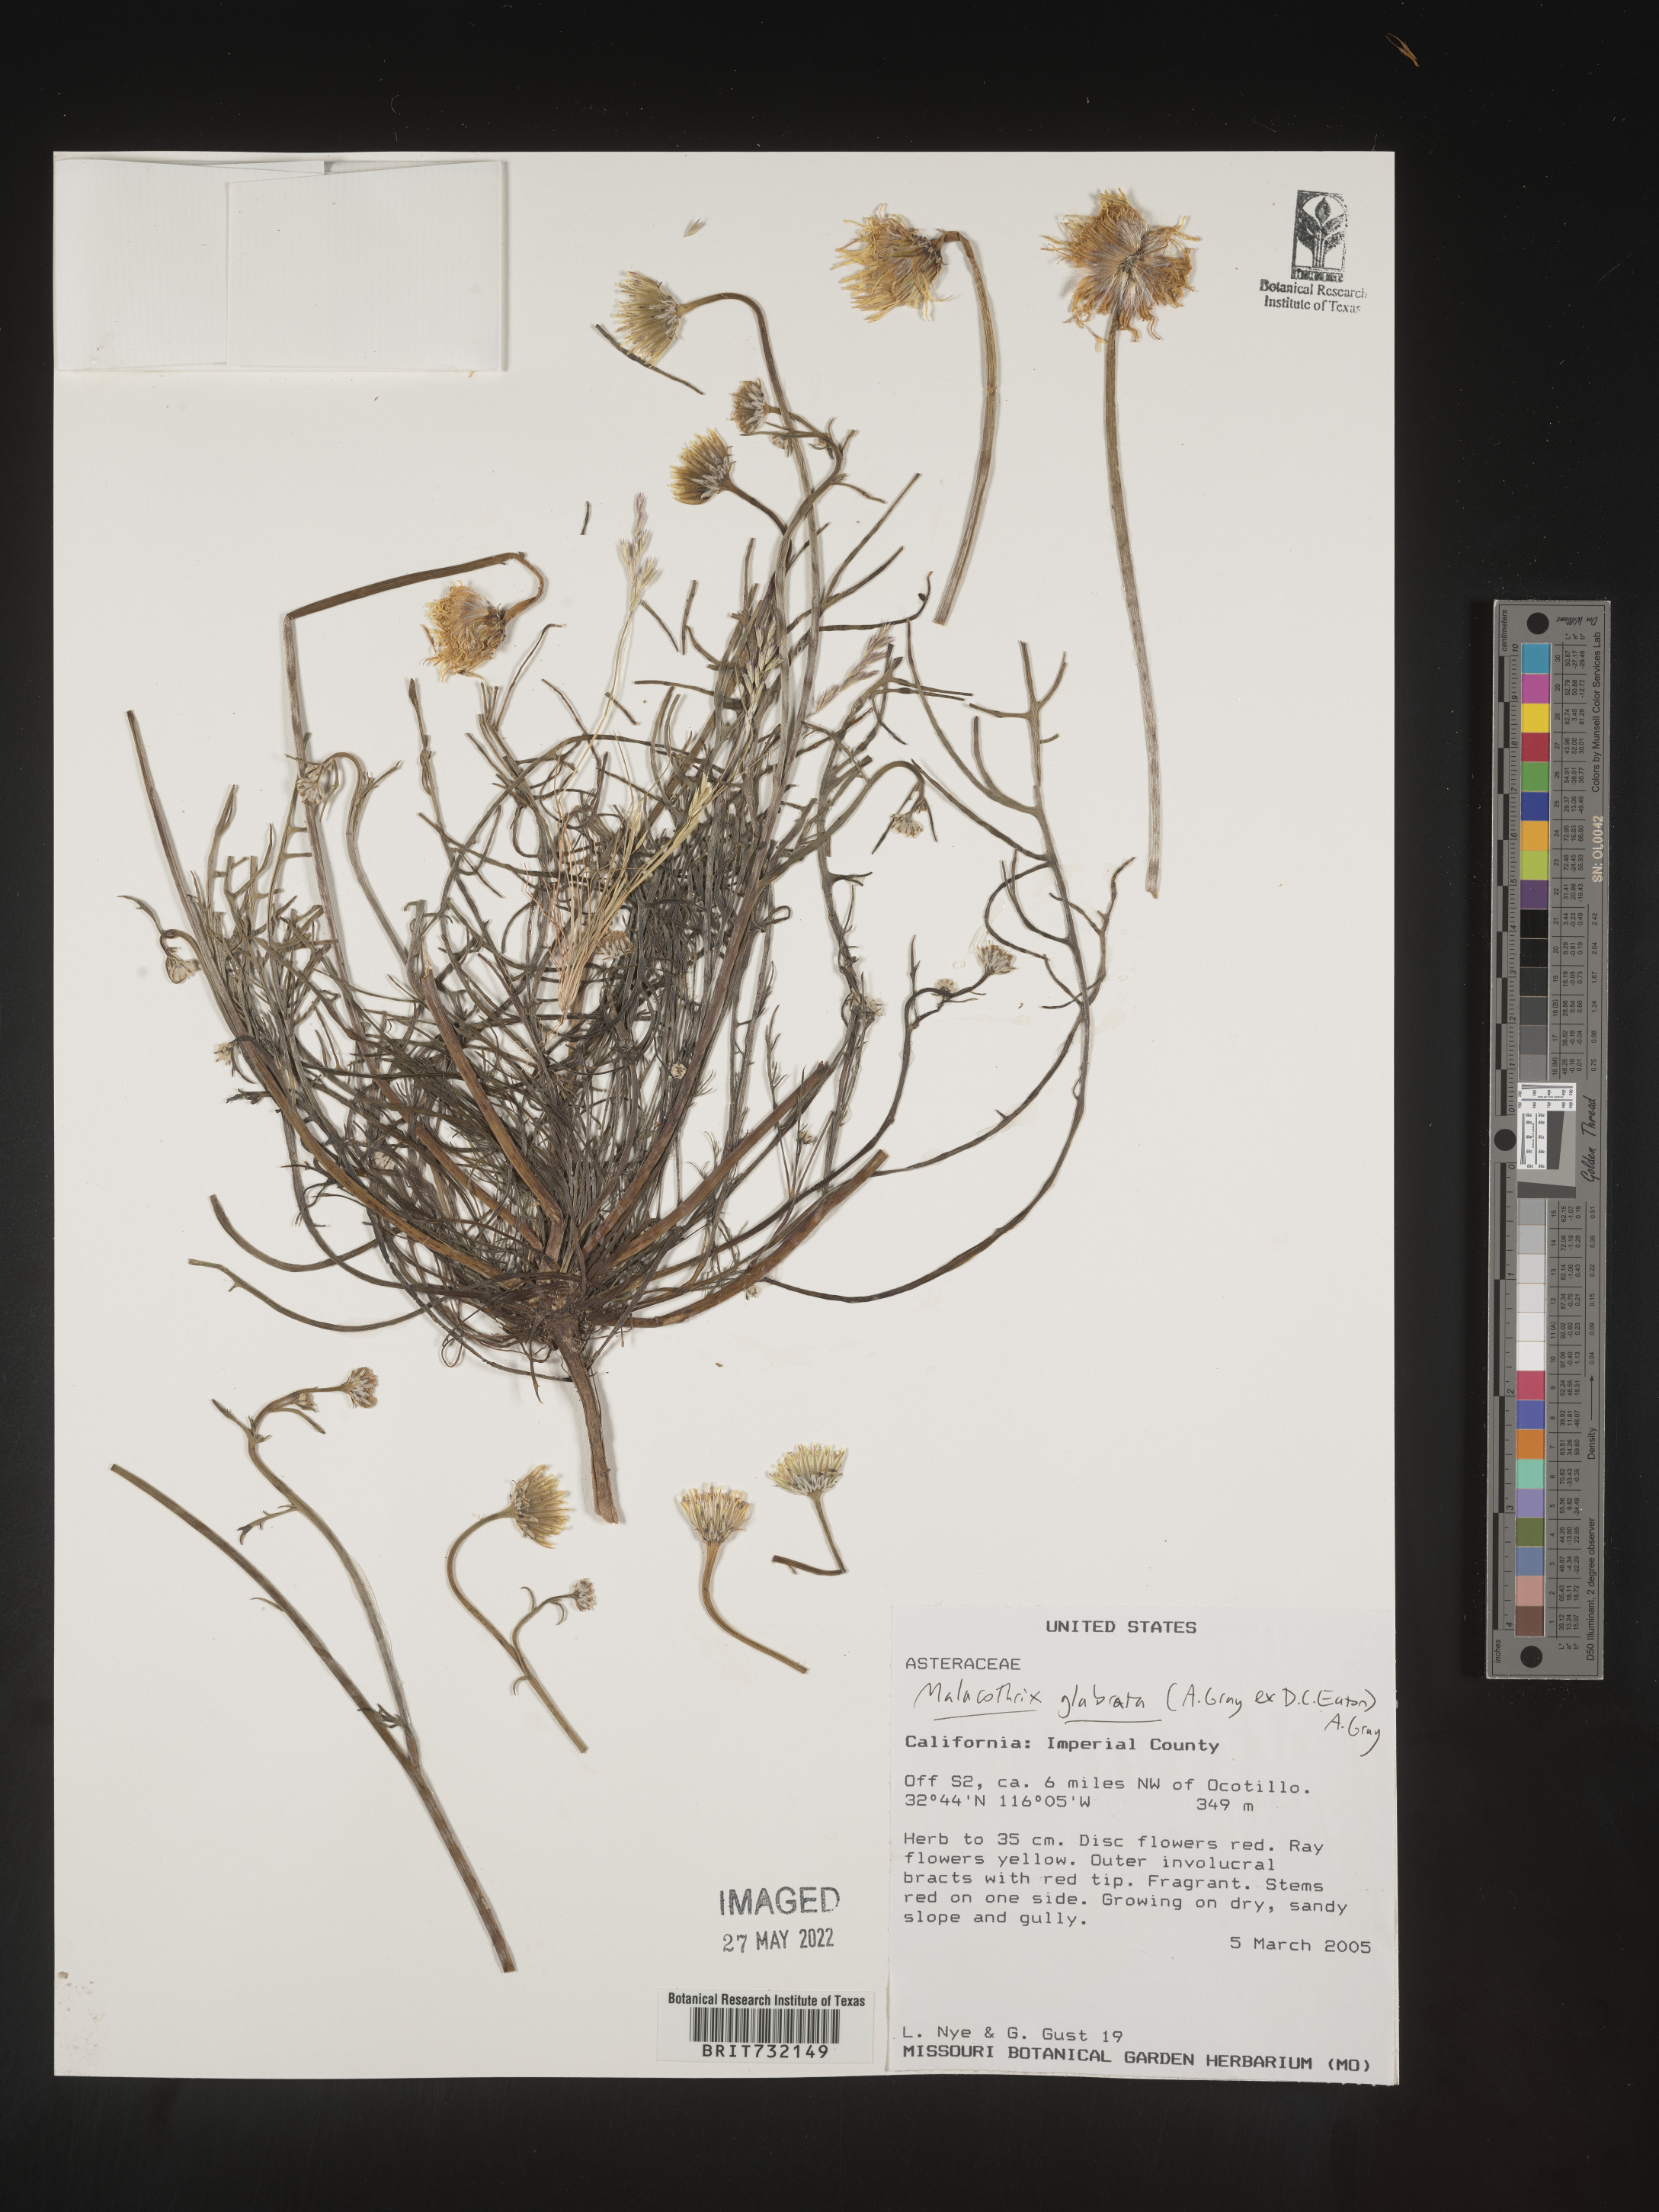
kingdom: Plantae
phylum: Tracheophyta
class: Magnoliopsida
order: Asterales
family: Asteraceae
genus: Malacothrix
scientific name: Malacothrix glabrata
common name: Smooth desert-dandelion
